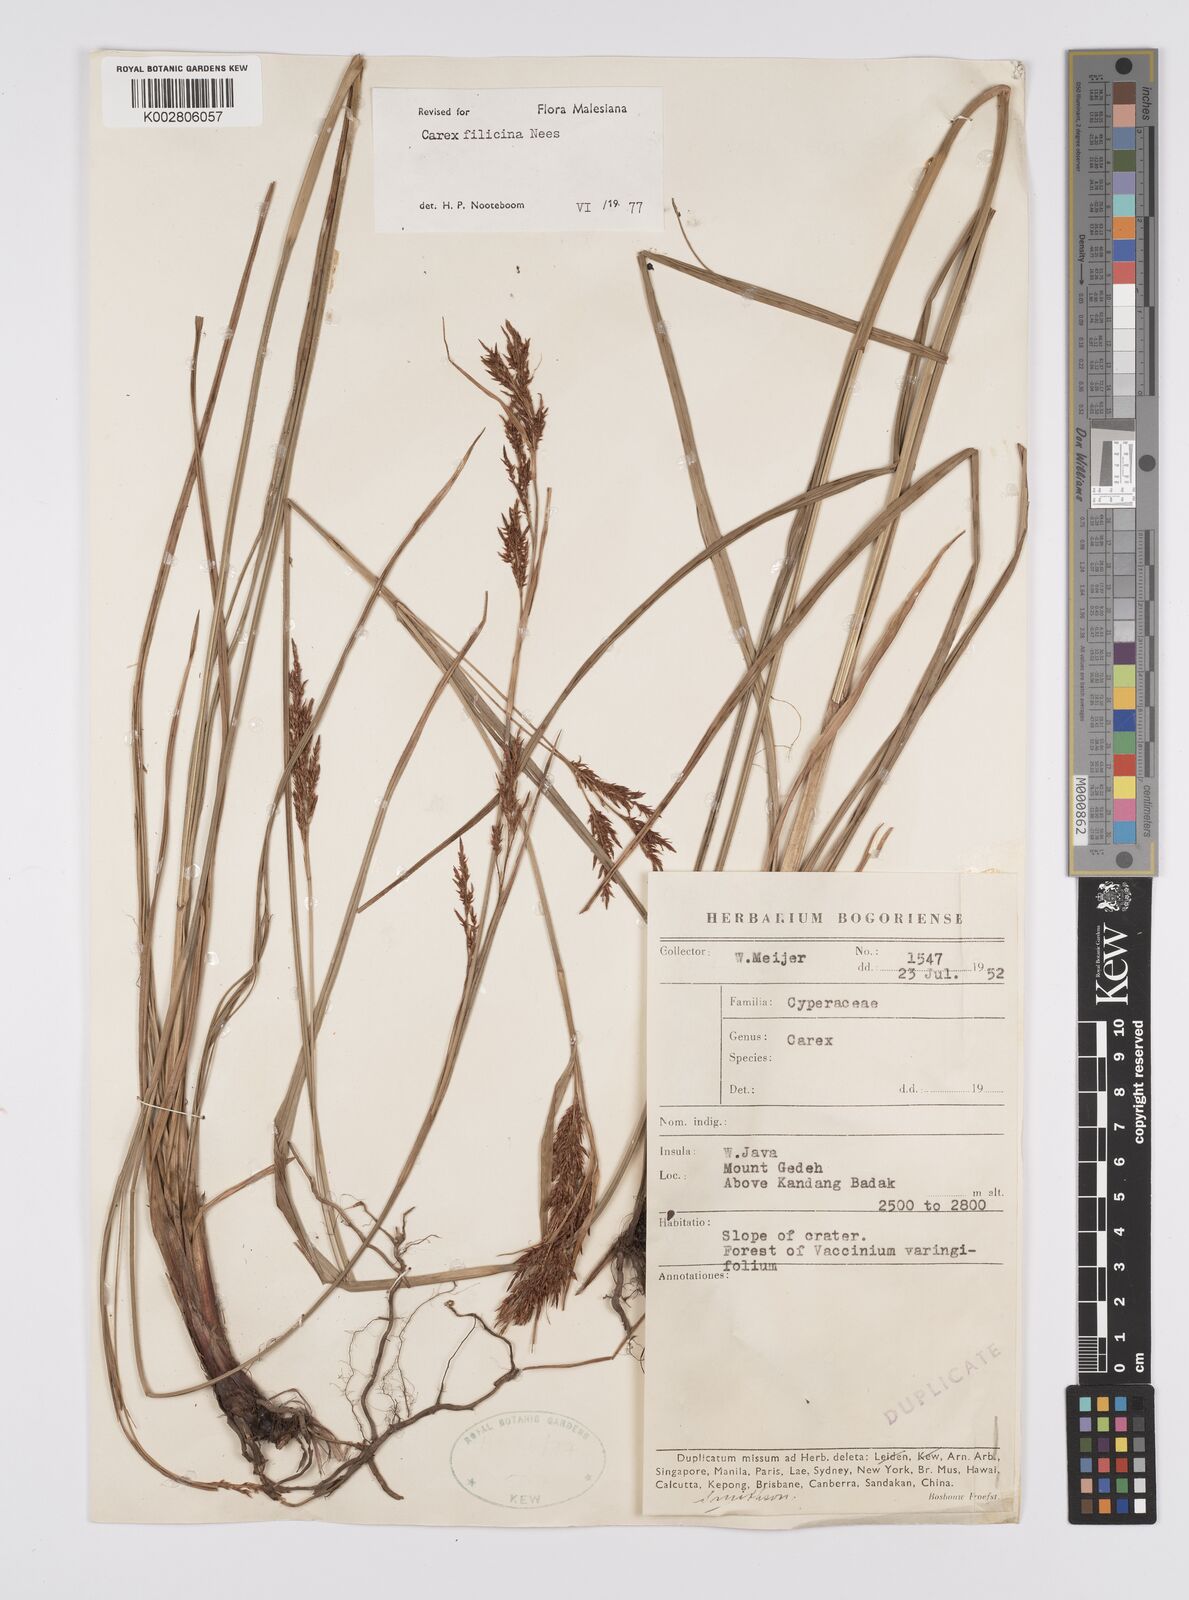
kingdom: Plantae
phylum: Tracheophyta
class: Liliopsida
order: Poales
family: Cyperaceae
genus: Carex
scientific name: Carex filicina
